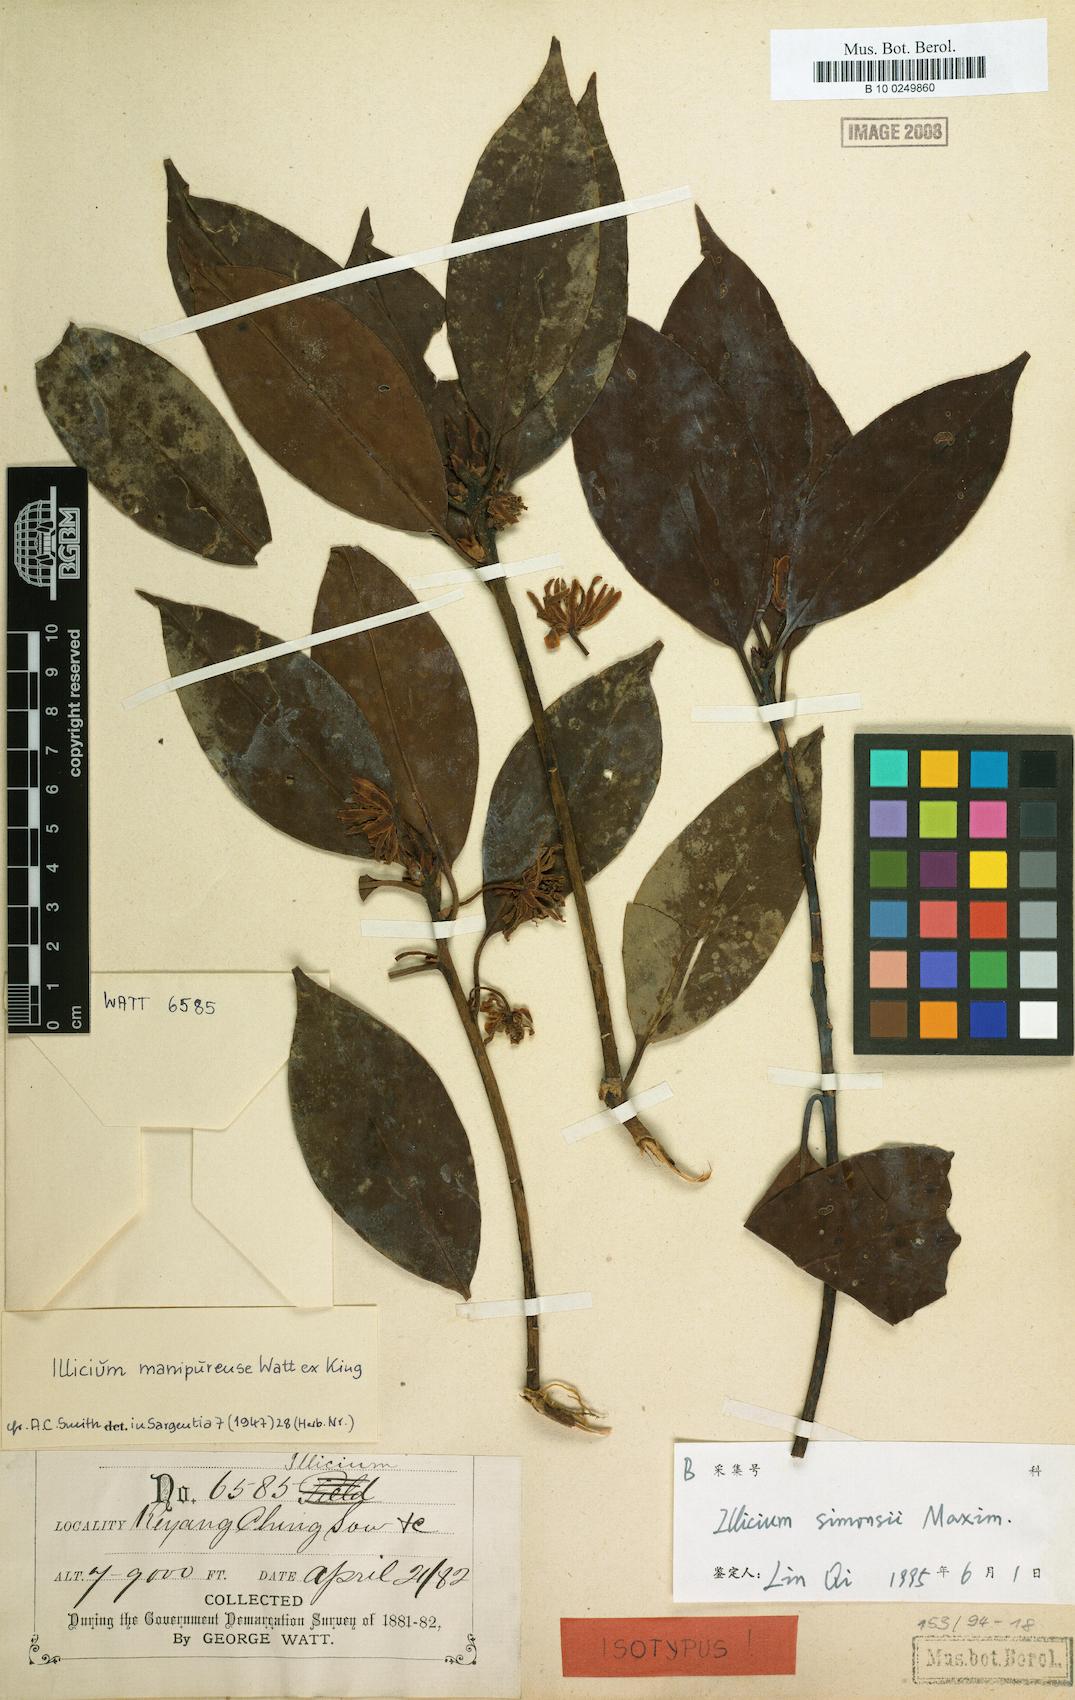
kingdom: Plantae
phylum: Tracheophyta
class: Magnoliopsida
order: Austrobaileyales
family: Schisandraceae
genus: Illicium
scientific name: Illicium simonsii
